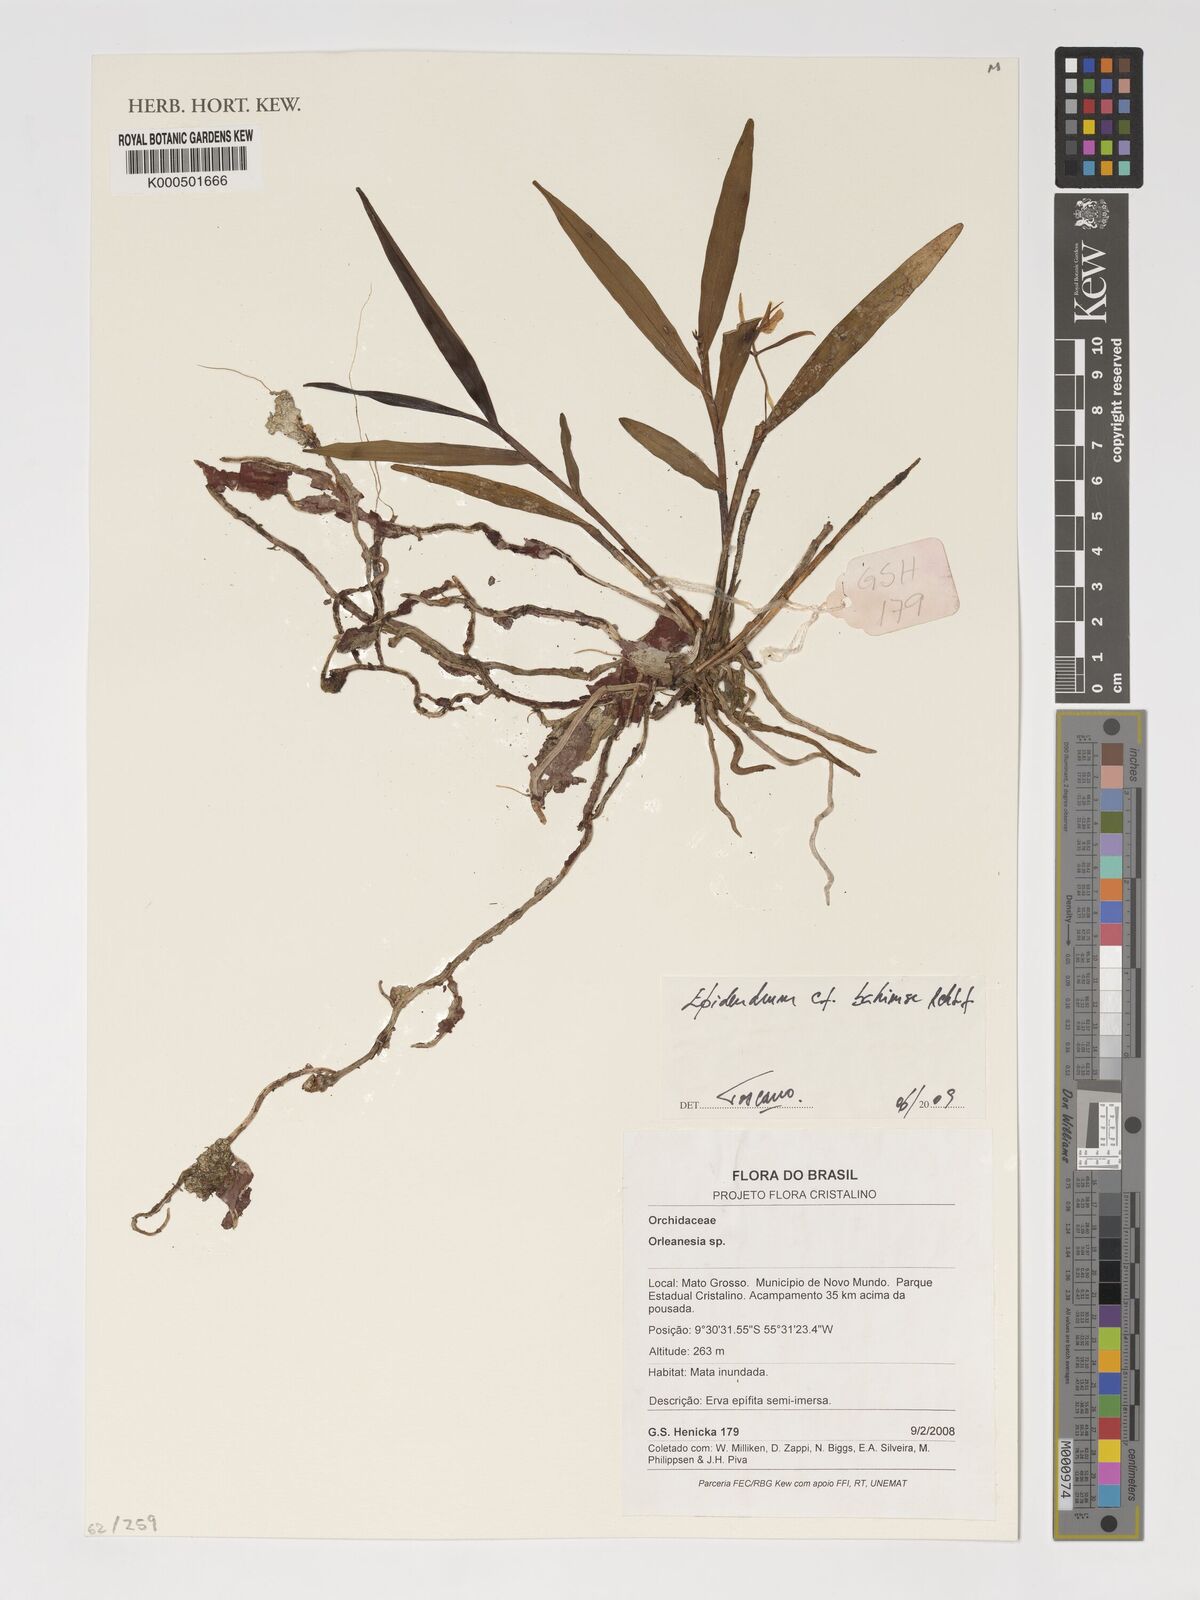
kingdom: Plantae
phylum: Tracheophyta
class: Liliopsida
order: Asparagales
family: Orchidaceae
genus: Epidendrum
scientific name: Epidendrum nocturnum
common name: Night scented orchid
